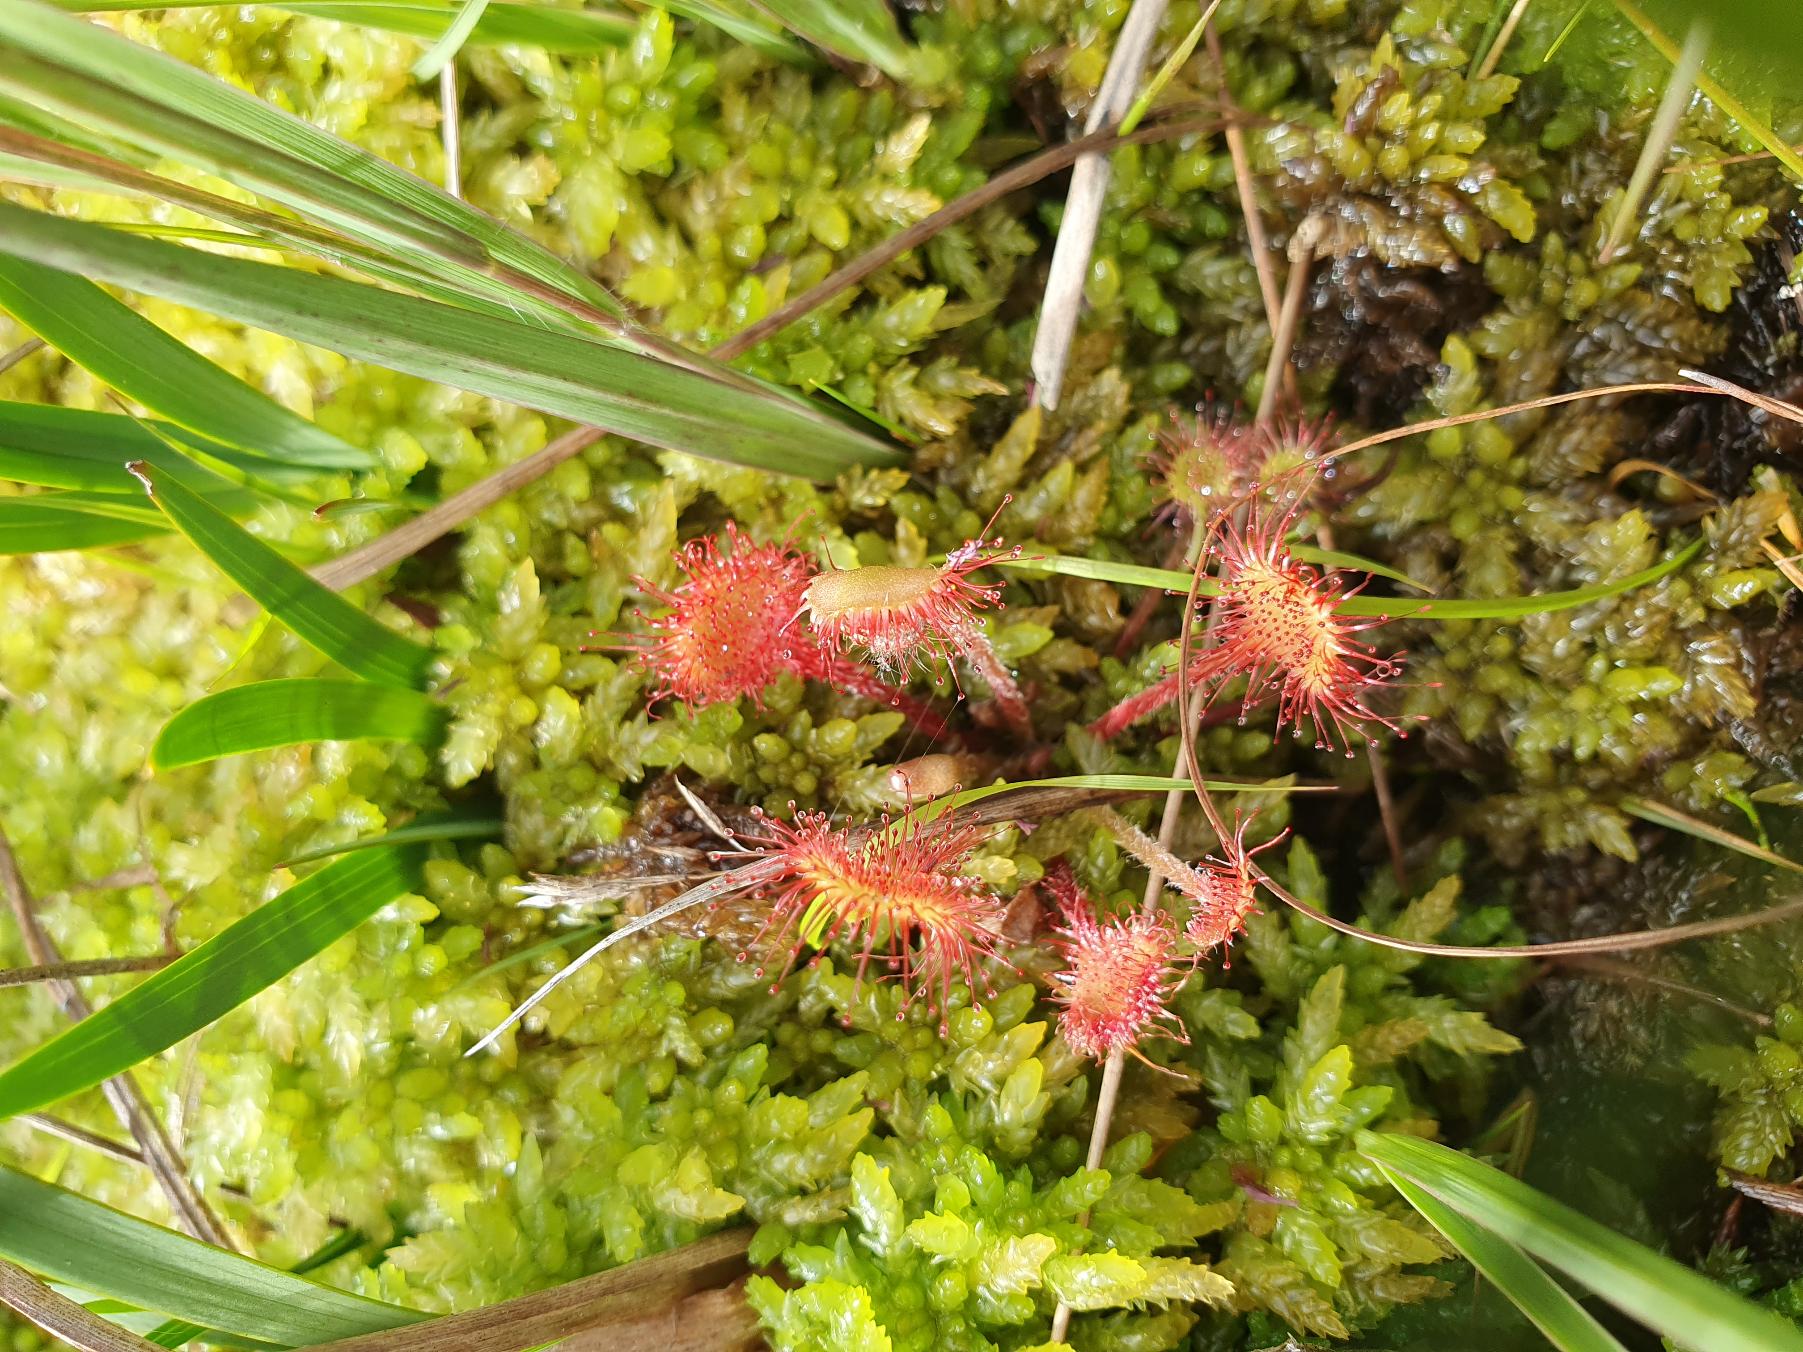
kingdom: Plantae
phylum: Tracheophyta
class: Magnoliopsida
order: Caryophyllales
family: Droseraceae
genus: Drosera
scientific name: Drosera rotundifolia
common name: Rundbladet soldug
